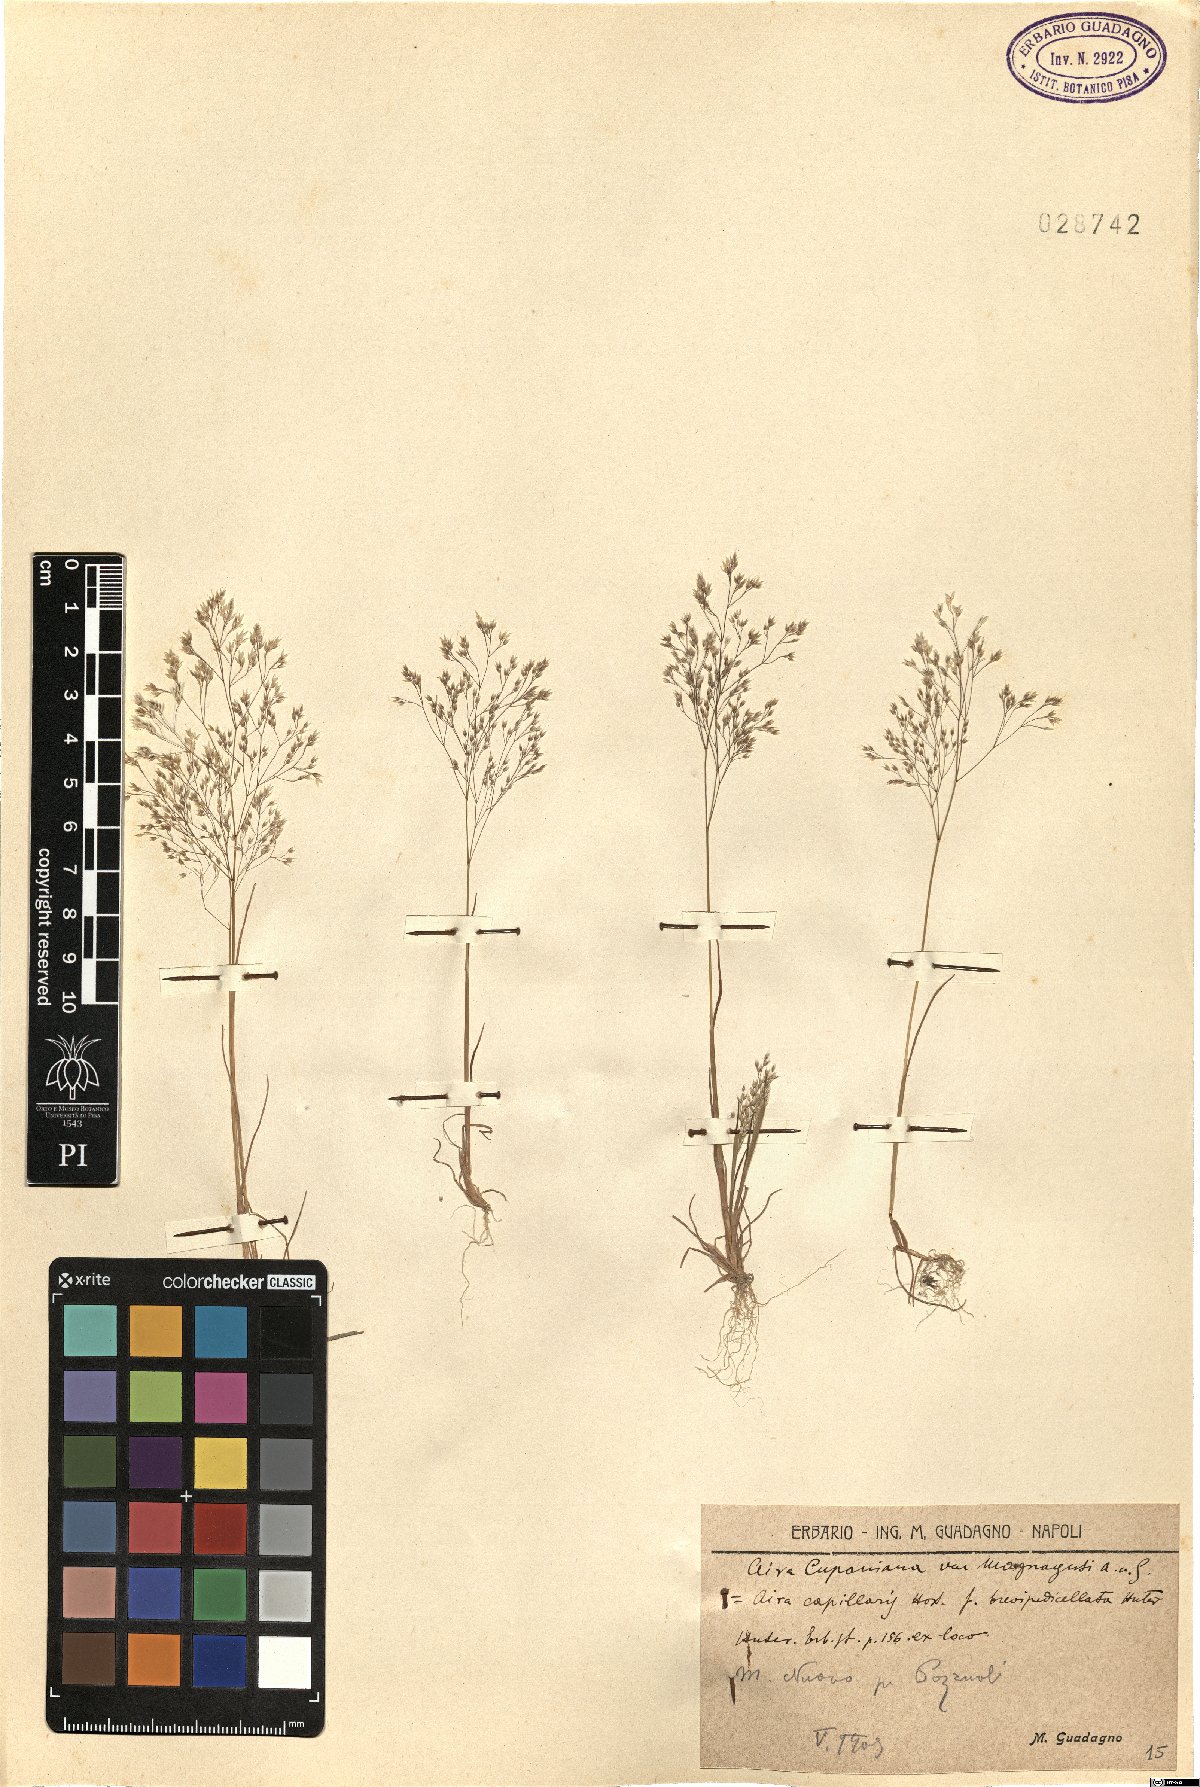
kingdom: Plantae
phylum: Tracheophyta
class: Liliopsida
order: Poales
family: Poaceae
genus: Aira
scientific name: Aira cupaniana
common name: Silver hairgrass
